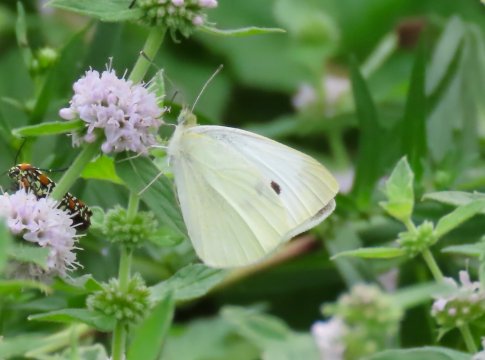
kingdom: Animalia
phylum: Arthropoda
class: Insecta
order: Lepidoptera
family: Pieridae
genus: Pieris
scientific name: Pieris rapae
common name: Cabbage White
